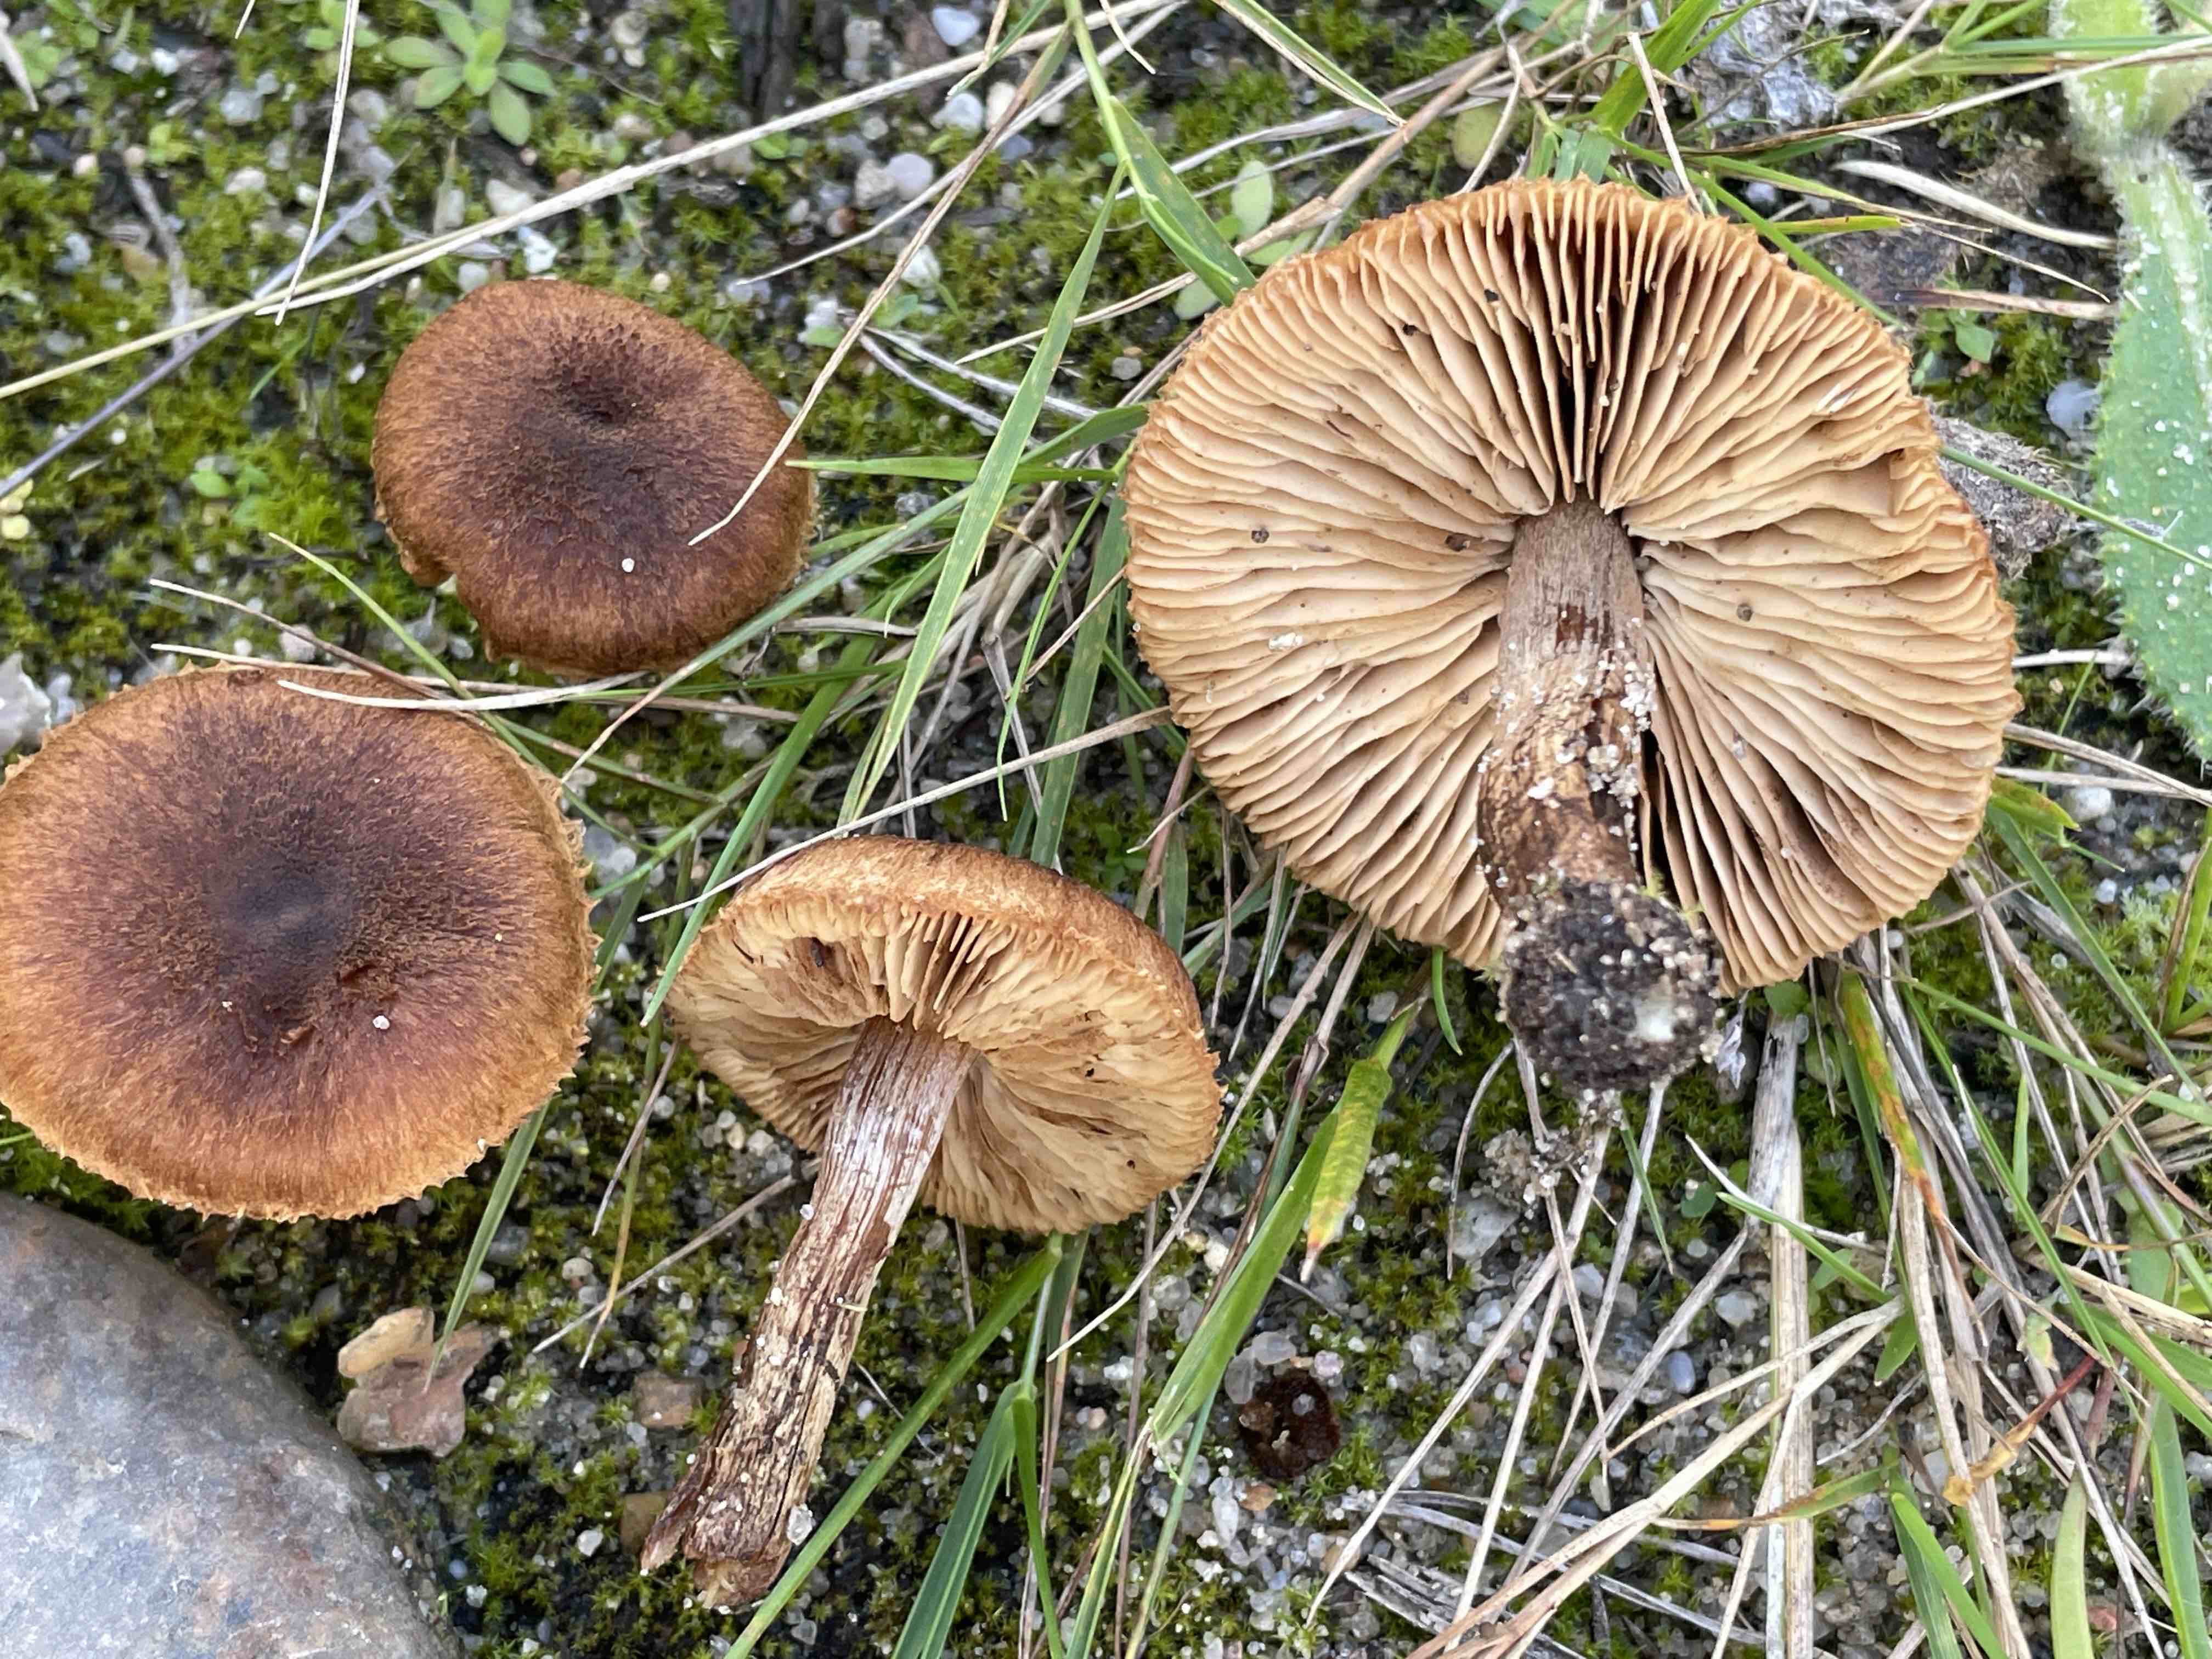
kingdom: Fungi
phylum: Basidiomycota
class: Agaricomycetes
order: Agaricales
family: Inocybaceae
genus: Inocybe
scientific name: Inocybe lacera
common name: laset trævlhat
